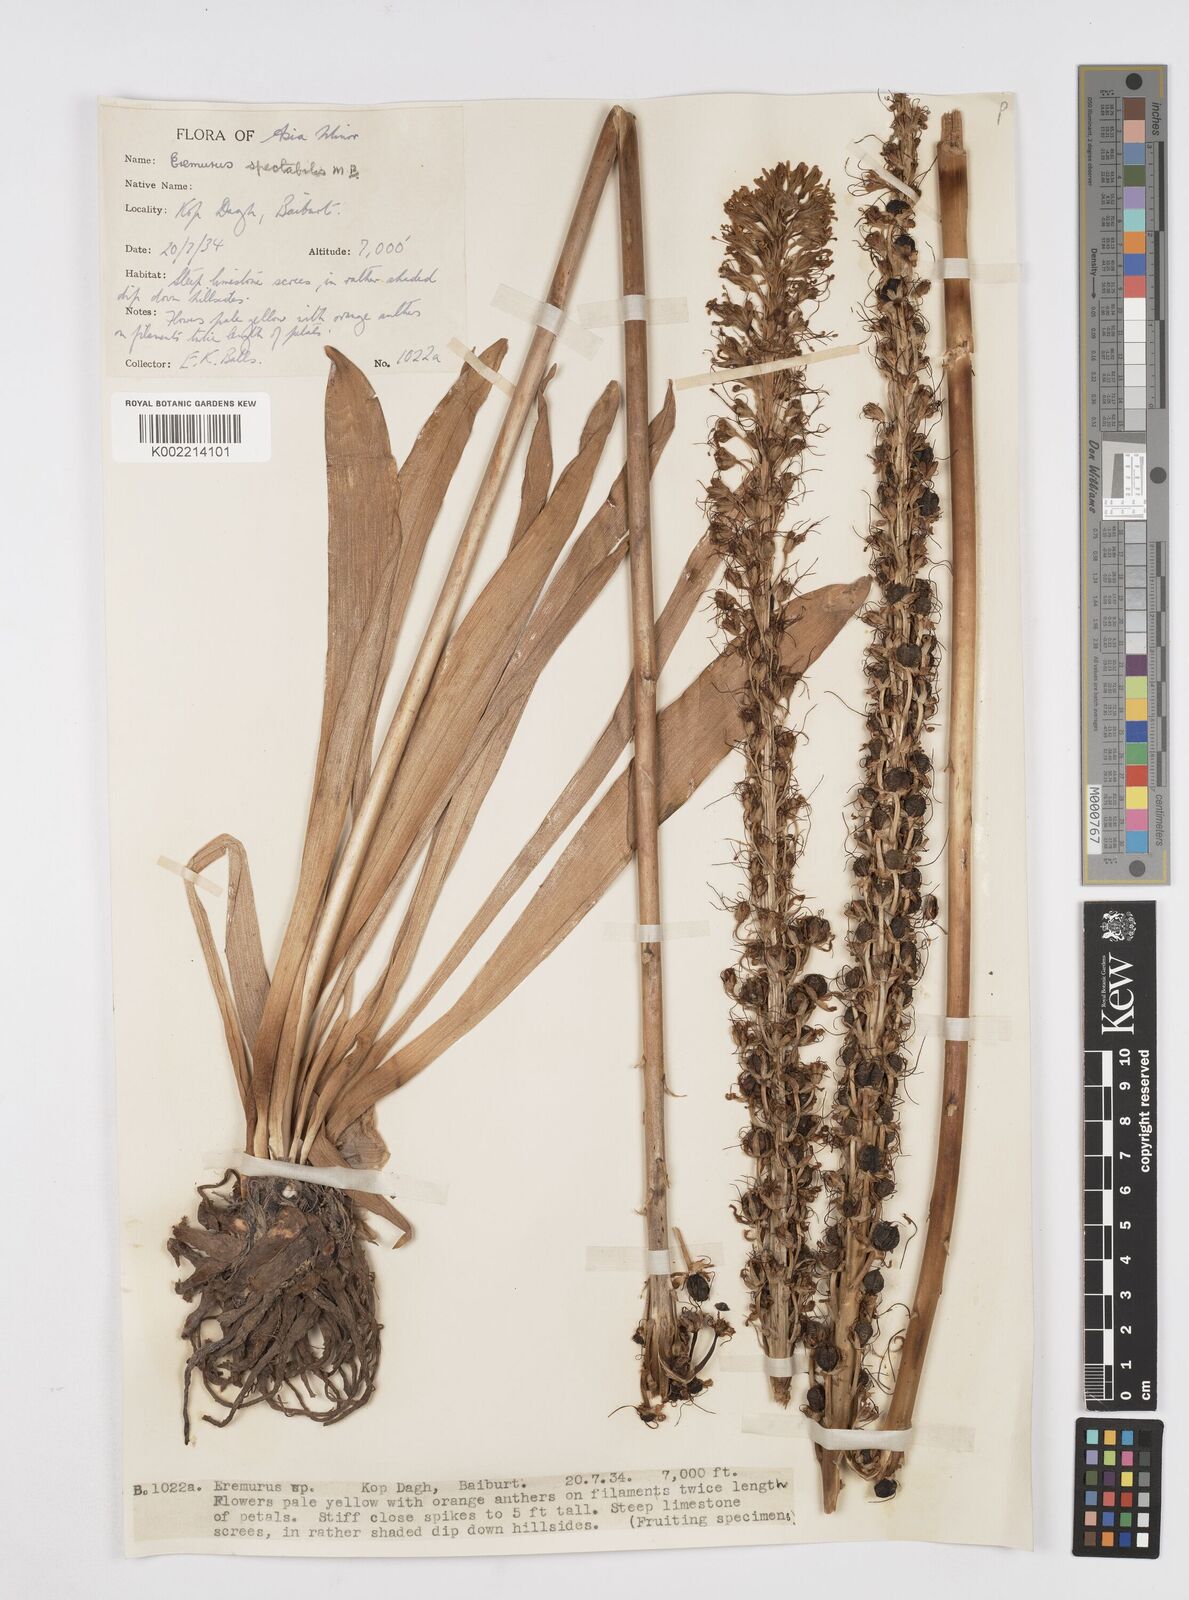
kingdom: Plantae
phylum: Tracheophyta
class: Liliopsida
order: Asparagales
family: Asphodelaceae
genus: Eremurus
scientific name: Eremurus spectabilis
